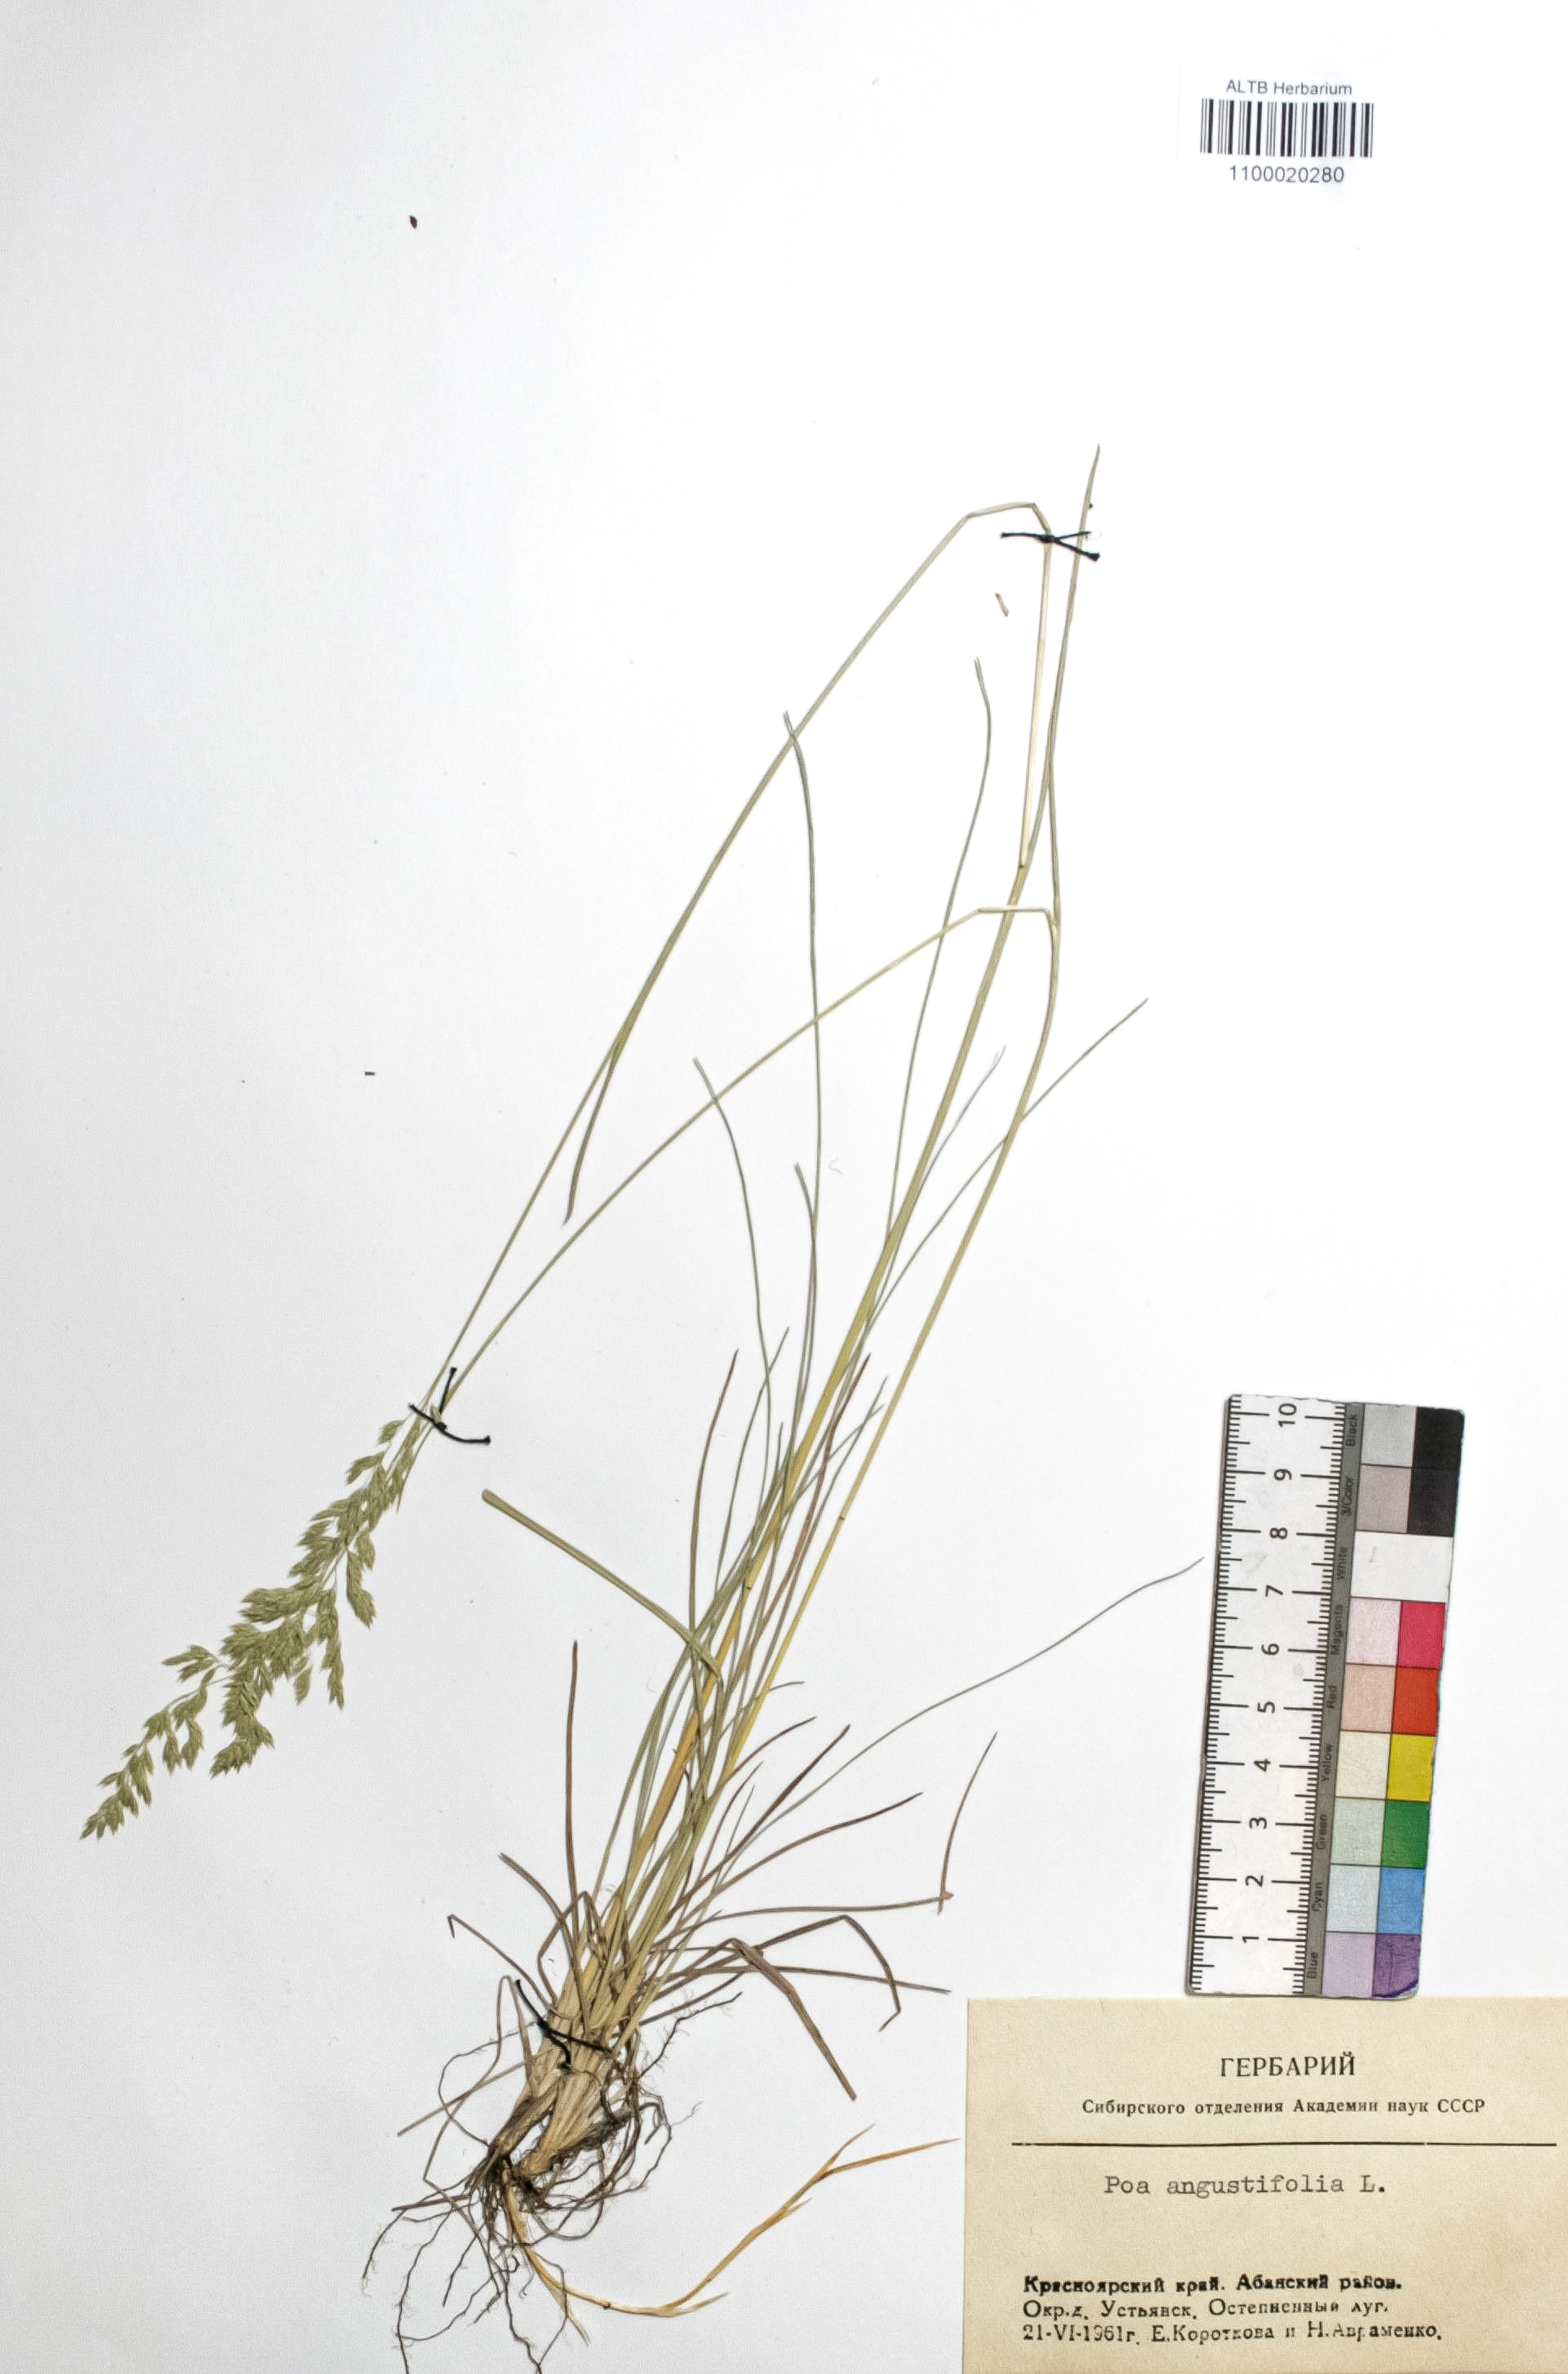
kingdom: Plantae
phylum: Tracheophyta
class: Liliopsida
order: Poales
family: Poaceae
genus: Poa
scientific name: Poa angustifolia
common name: Narrow-leaved meadow-grass
